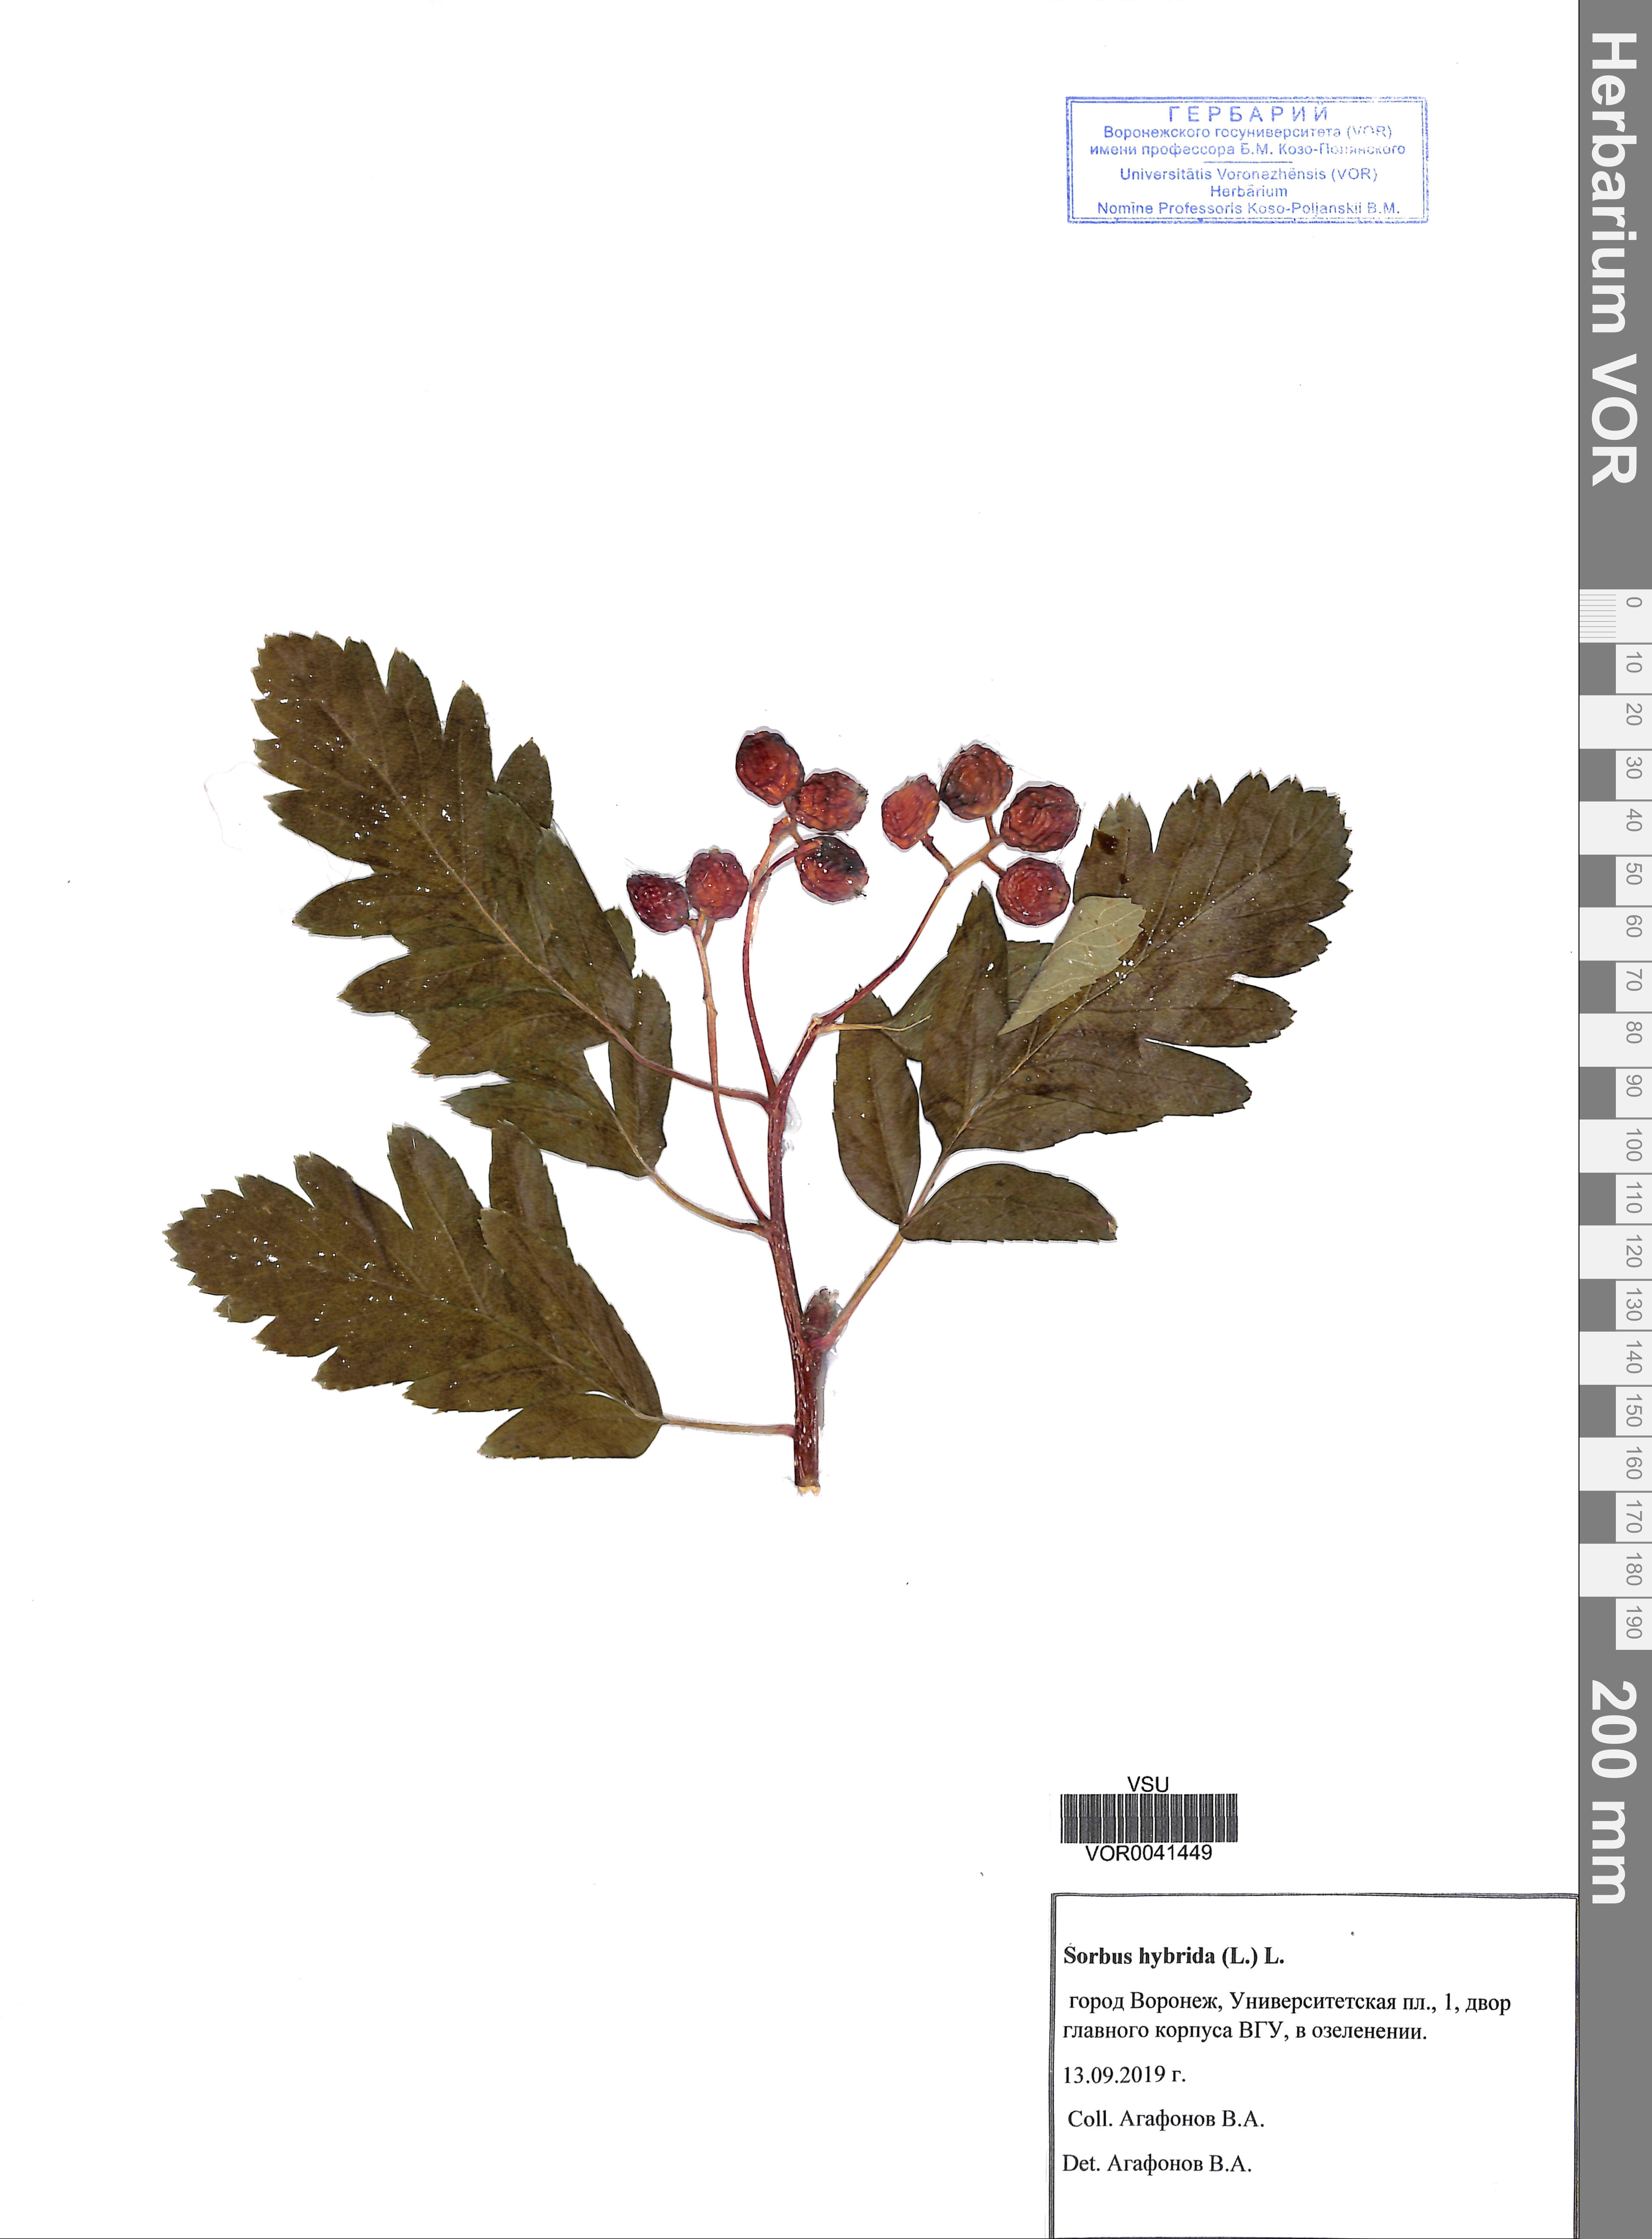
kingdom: Plantae
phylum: Tracheophyta
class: Magnoliopsida
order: Rosales
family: Rosaceae
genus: Hedlundia
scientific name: Hedlundia hybrida
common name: Swedish service-tree
